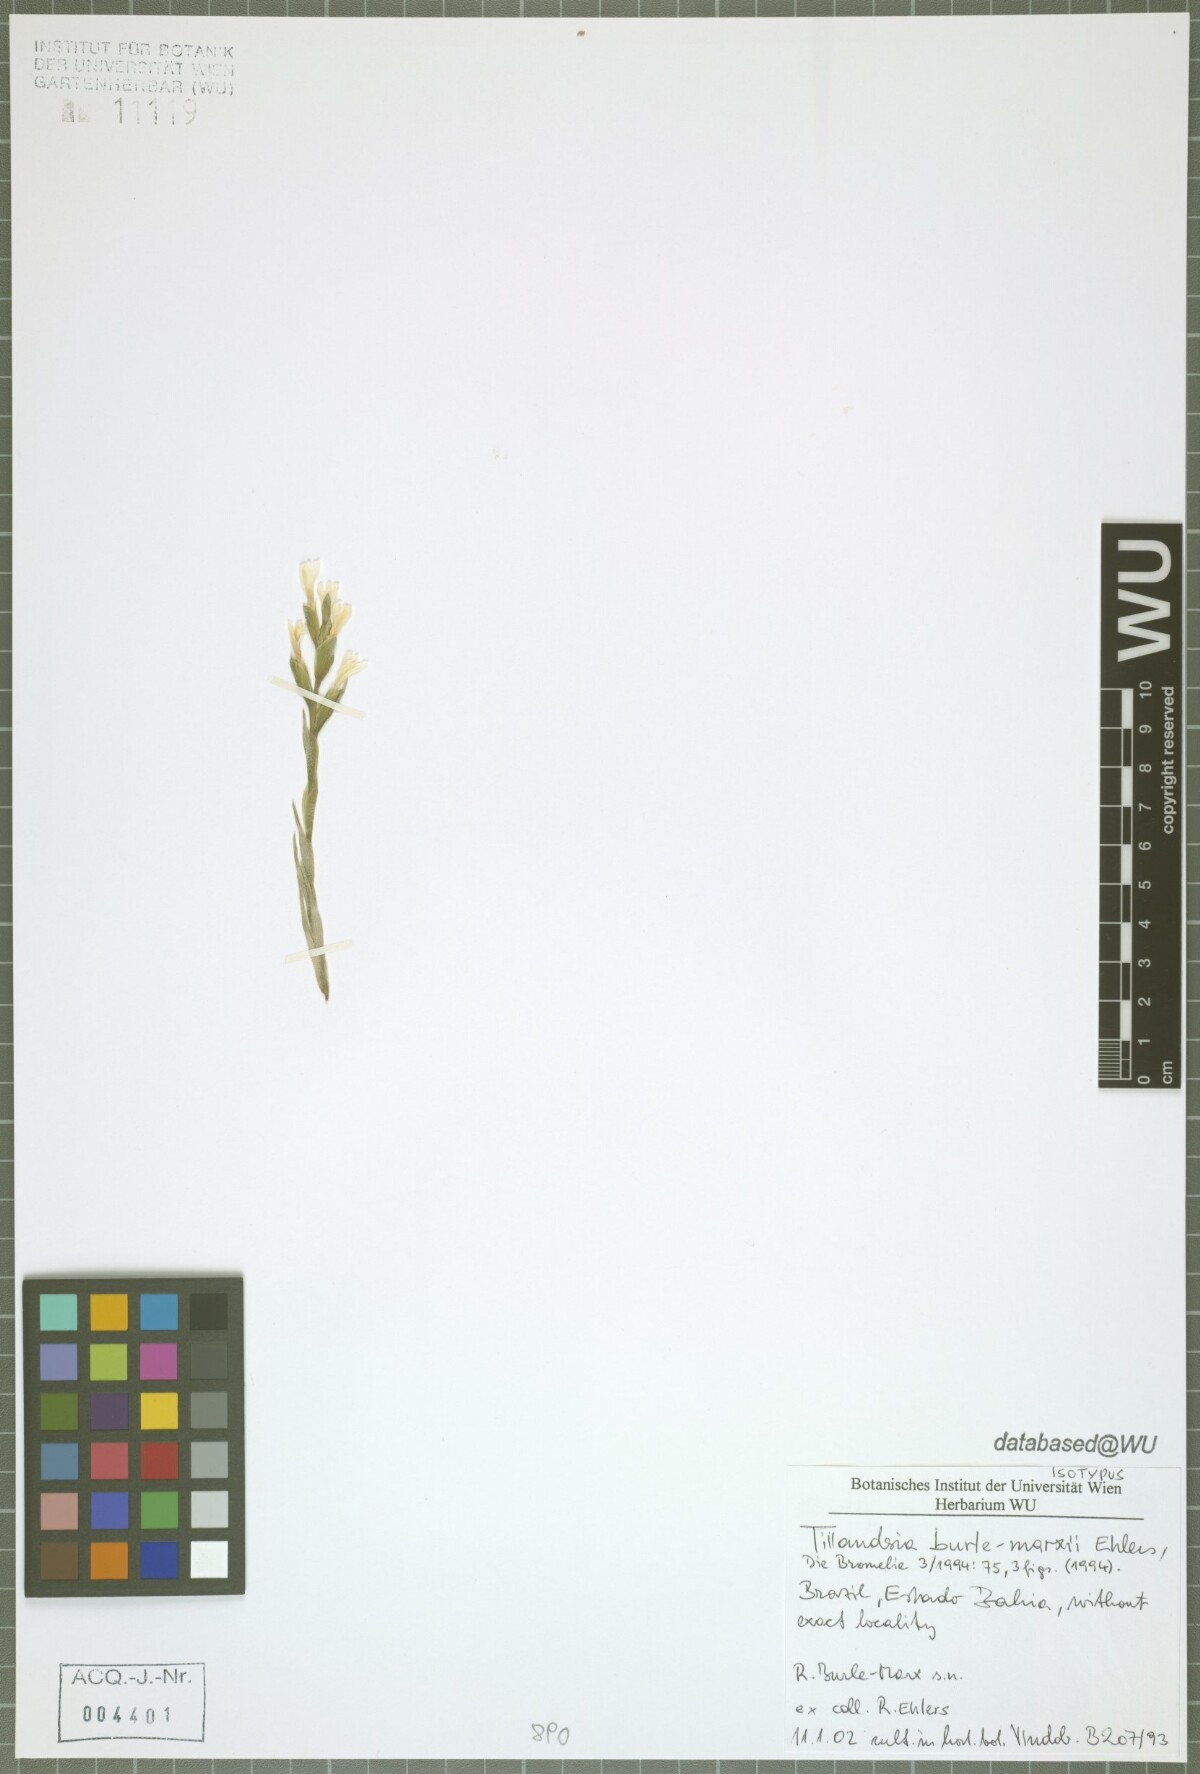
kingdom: Plantae
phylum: Tracheophyta
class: Liliopsida
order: Poales
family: Bromeliaceae
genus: Tillandsia
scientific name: Tillandsia burle-marxii
